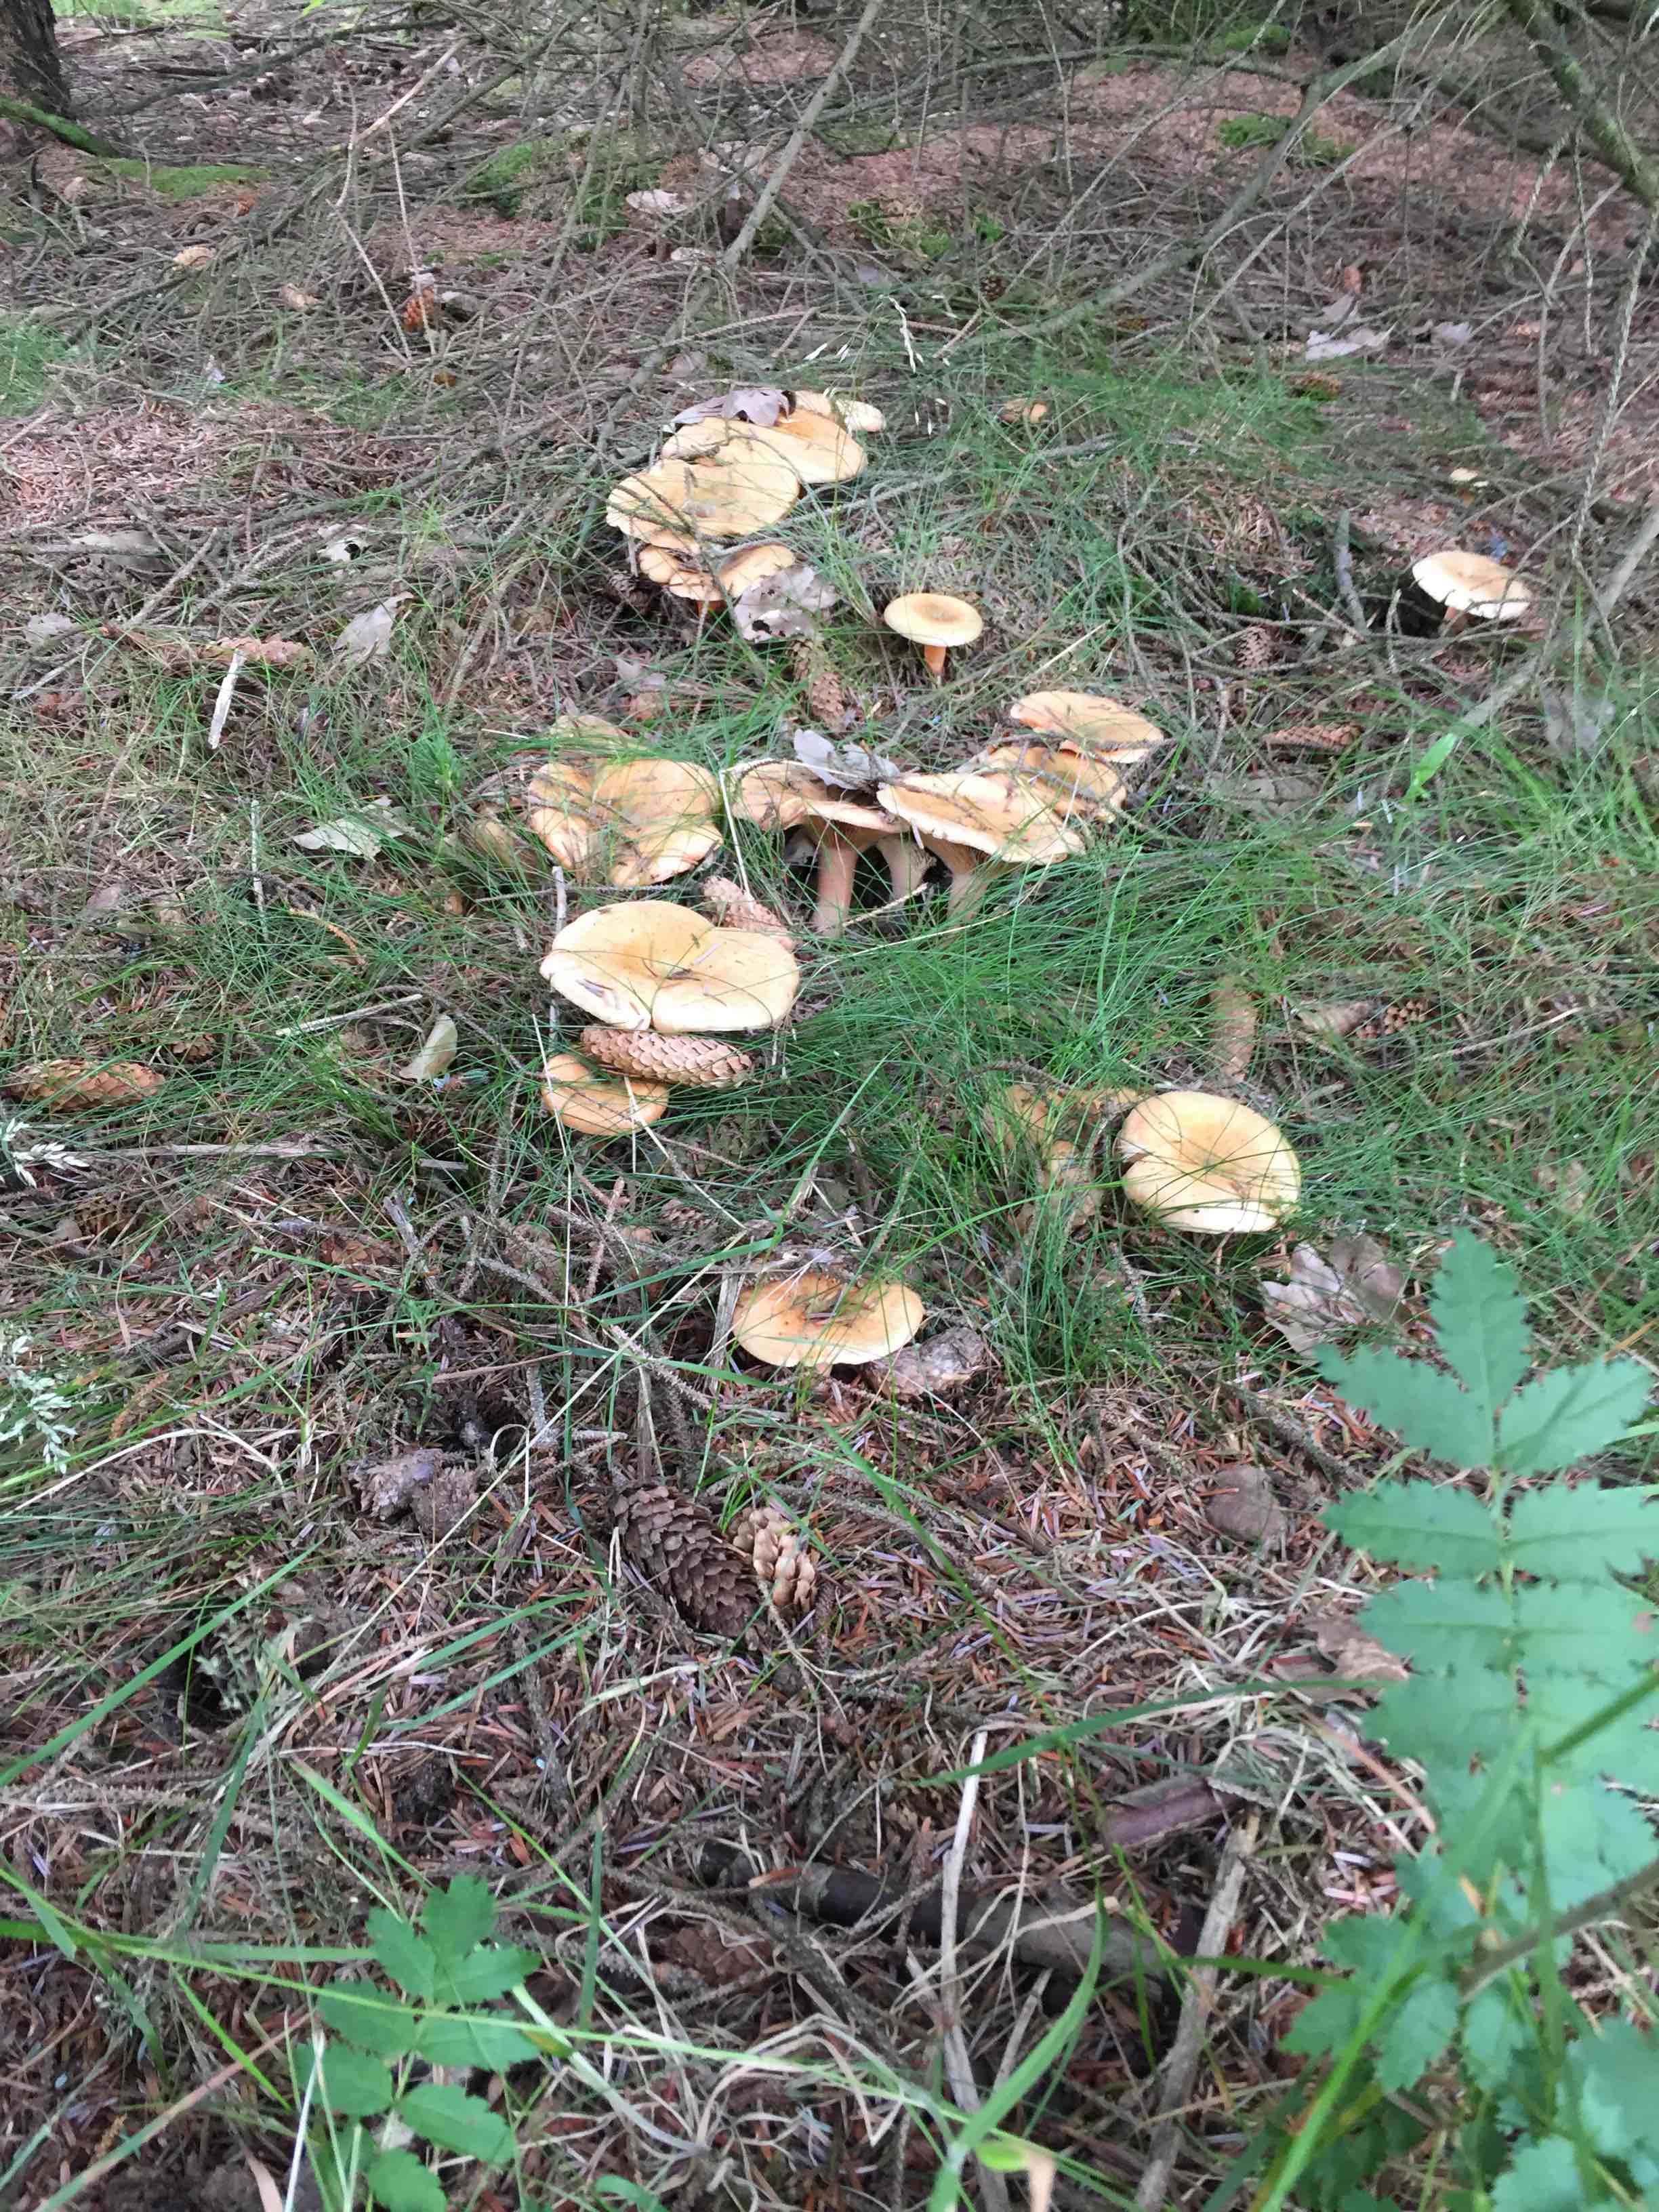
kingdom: Fungi
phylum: Basidiomycota
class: Agaricomycetes
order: Russulales
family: Russulaceae
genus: Lactarius
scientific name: Lactarius deterrimus
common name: gran-mælkehat
